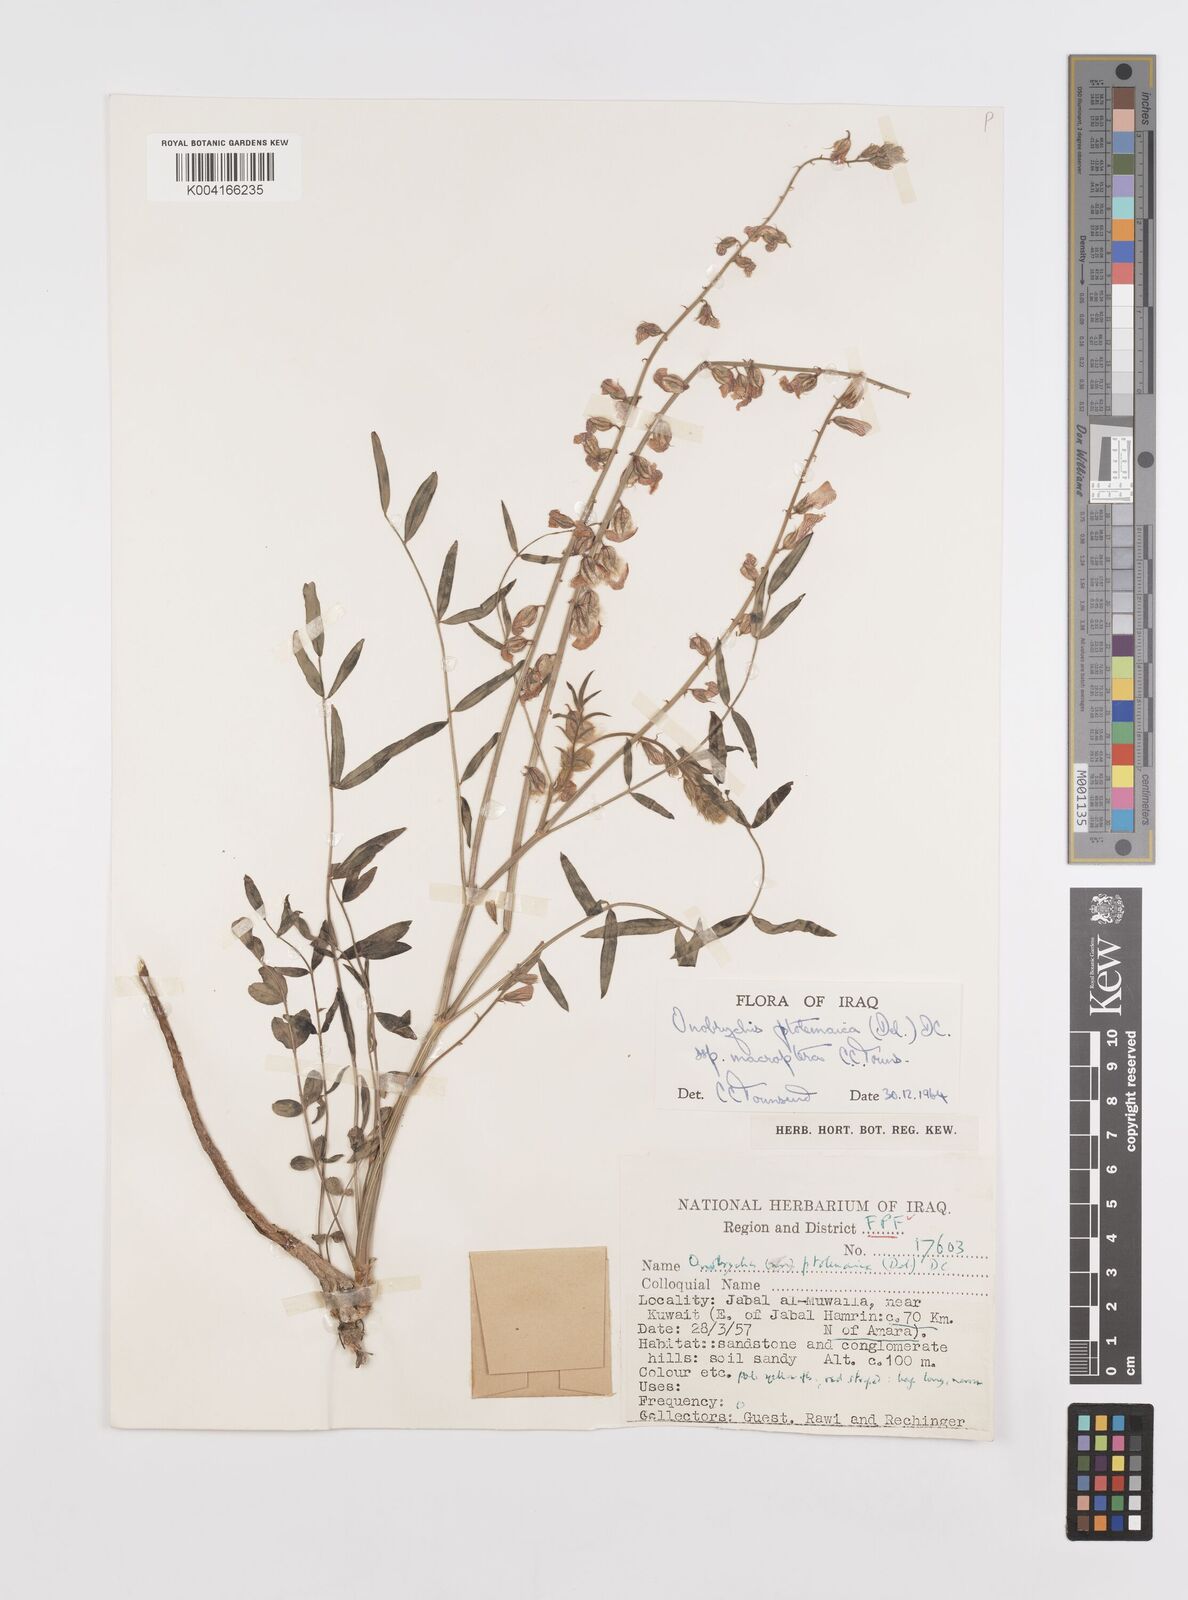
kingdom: Plantae
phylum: Tracheophyta
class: Magnoliopsida
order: Fabales
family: Fabaceae
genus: Onobrychis
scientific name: Onobrychis ptolemaica
